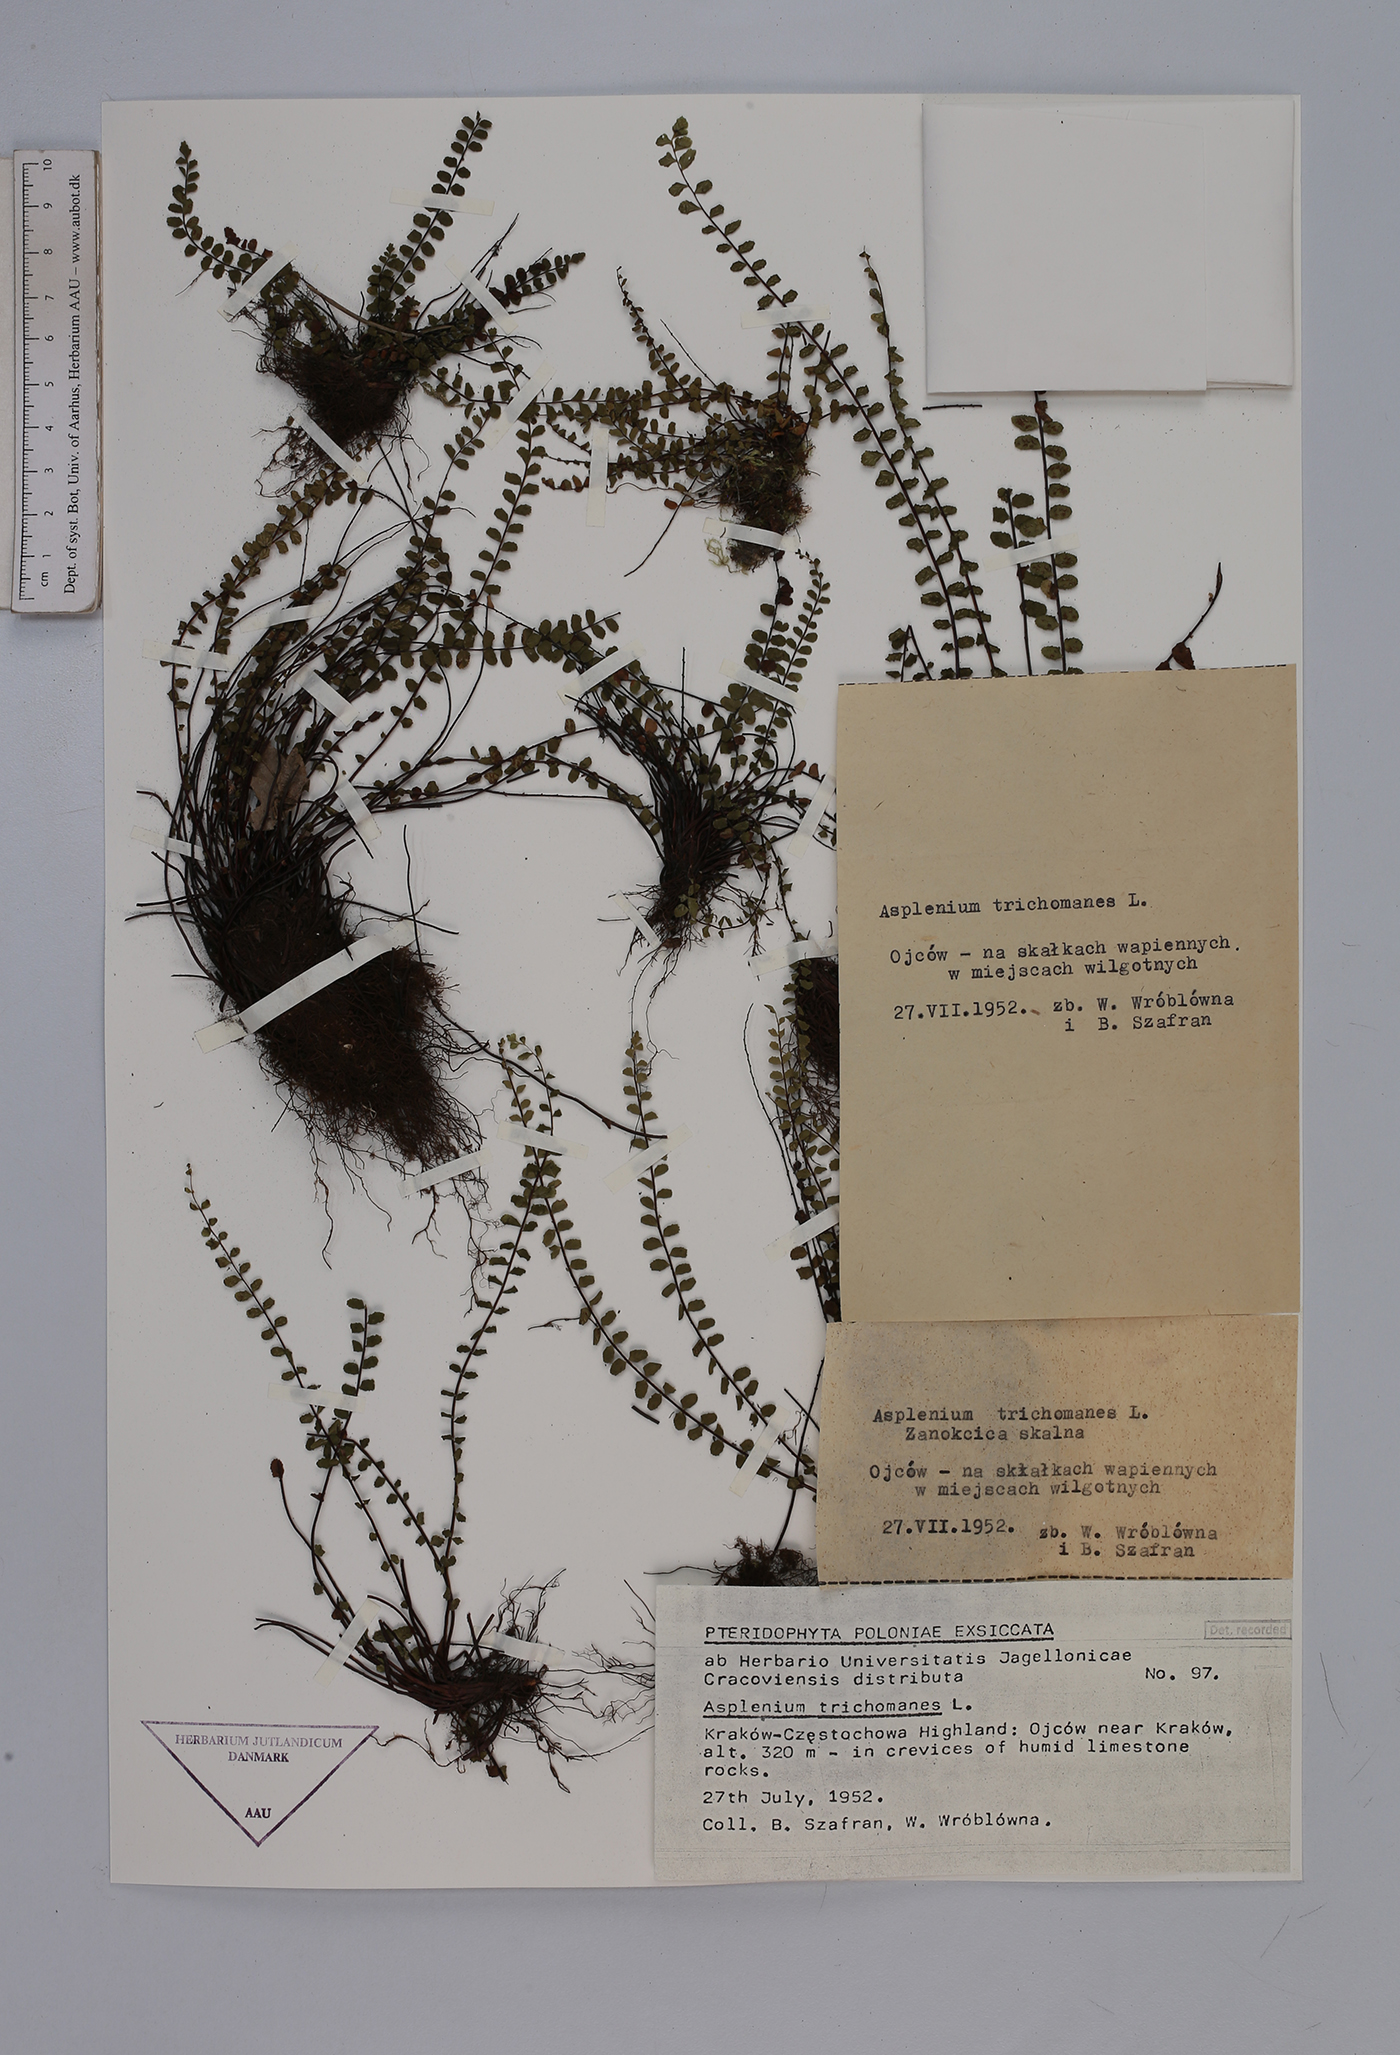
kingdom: Plantae
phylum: Tracheophyta
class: Polypodiopsida
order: Polypodiales
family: Aspleniaceae
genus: Asplenium
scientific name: Asplenium trichomanes
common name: Maidenhair spleenwort
